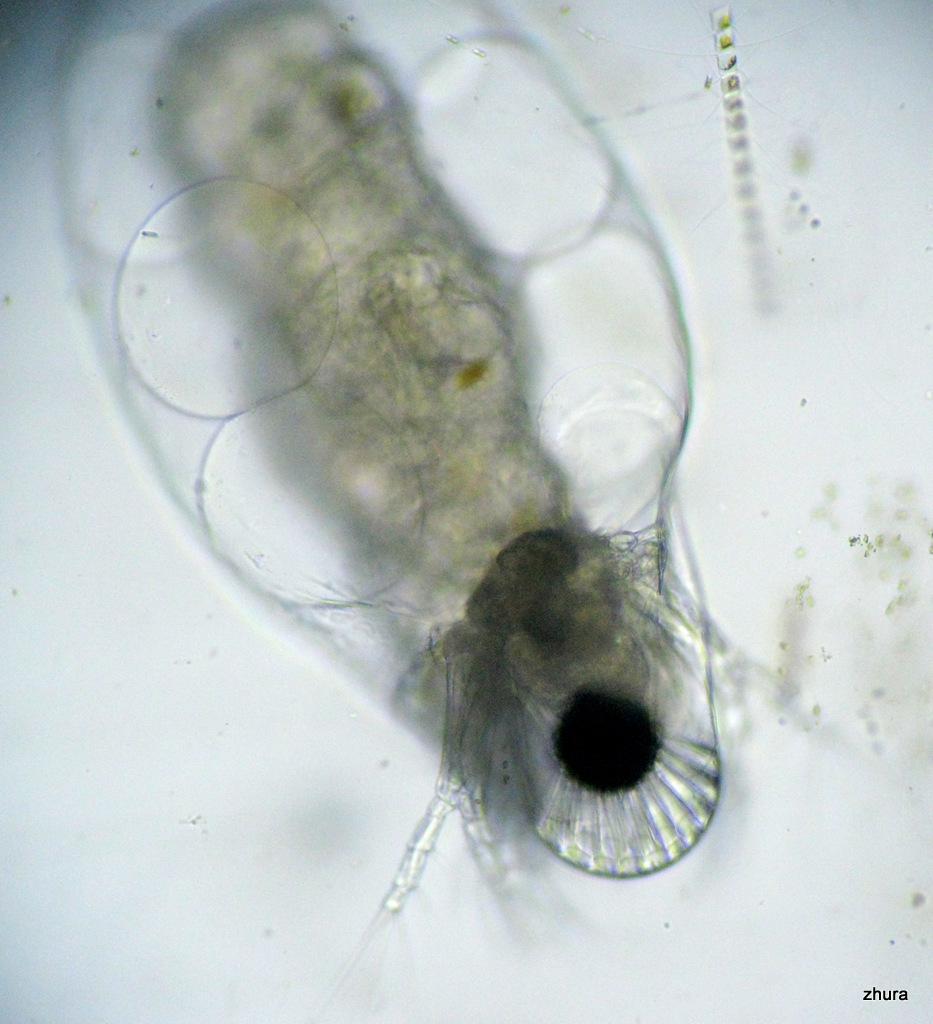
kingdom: Animalia
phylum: Arthropoda
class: Branchiopoda
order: Diplostraca
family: Podonidae
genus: Podon
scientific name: Podon leuckarti
